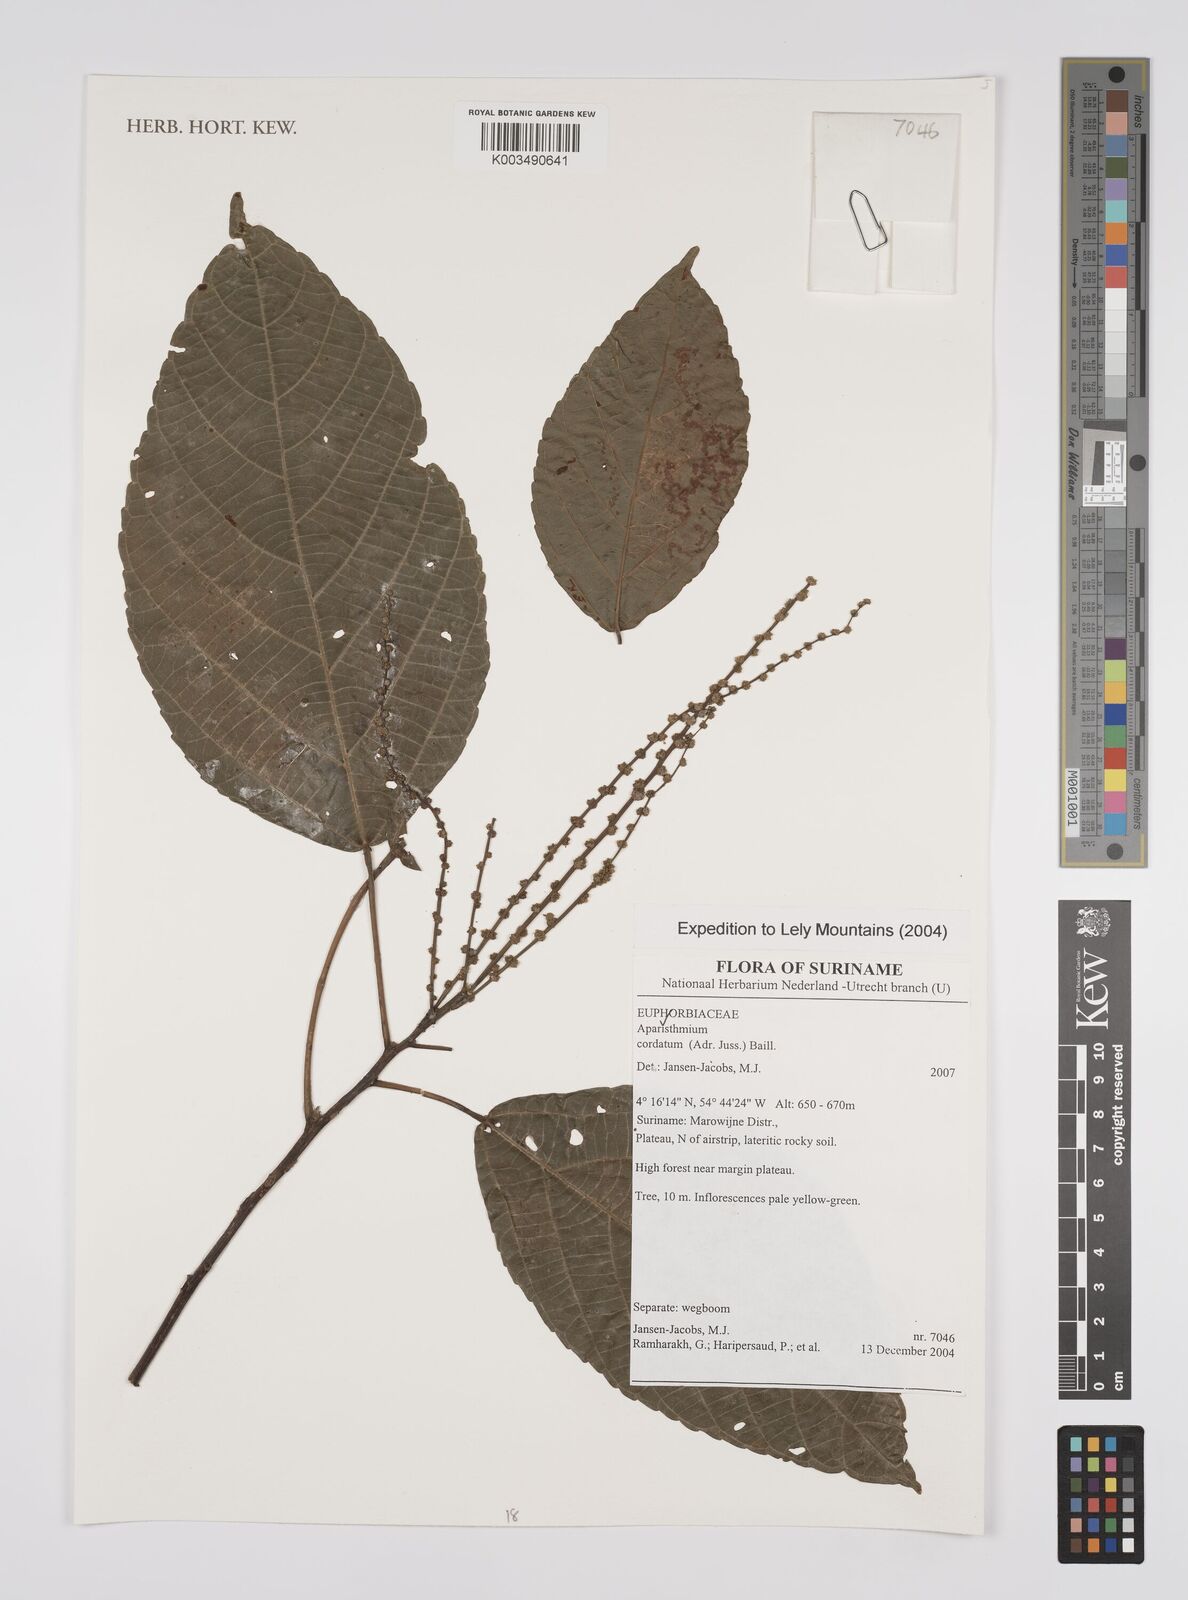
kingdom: Plantae
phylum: Tracheophyta
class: Magnoliopsida
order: Malpighiales
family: Euphorbiaceae
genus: Aparisthmium
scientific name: Aparisthmium cordatum
